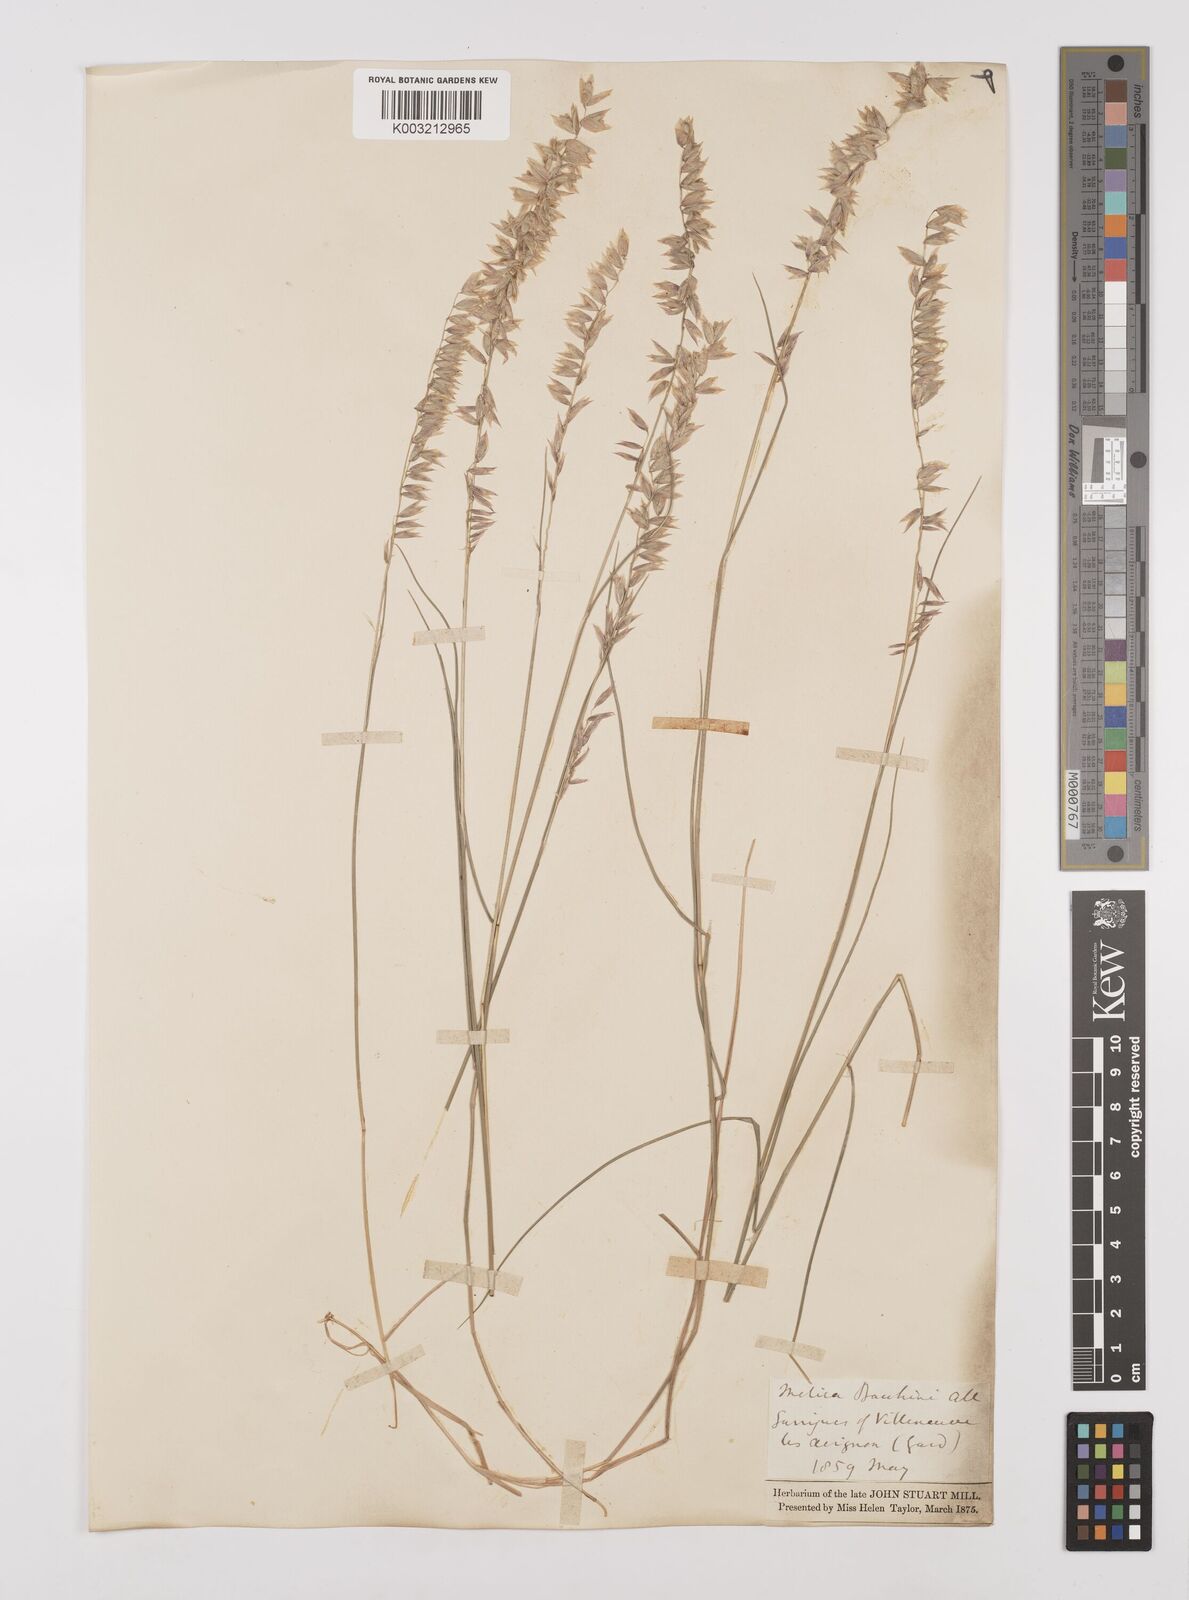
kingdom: Plantae
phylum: Tracheophyta
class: Liliopsida
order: Poales
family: Poaceae
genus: Melica
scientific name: Melica amethystina
